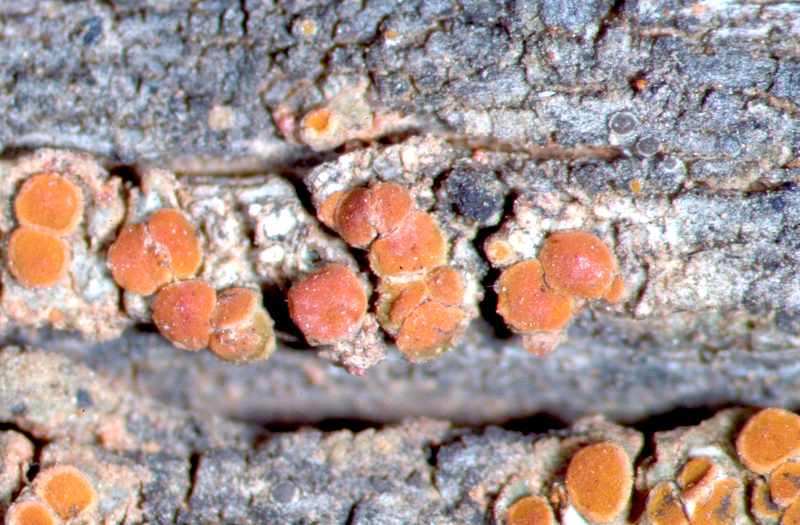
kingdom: Fungi
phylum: Ascomycota
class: Lecanoromycetes
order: Teloschistales
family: Teloschistaceae
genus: Athallia
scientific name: Athallia holocarpa
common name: Firedot lichen
